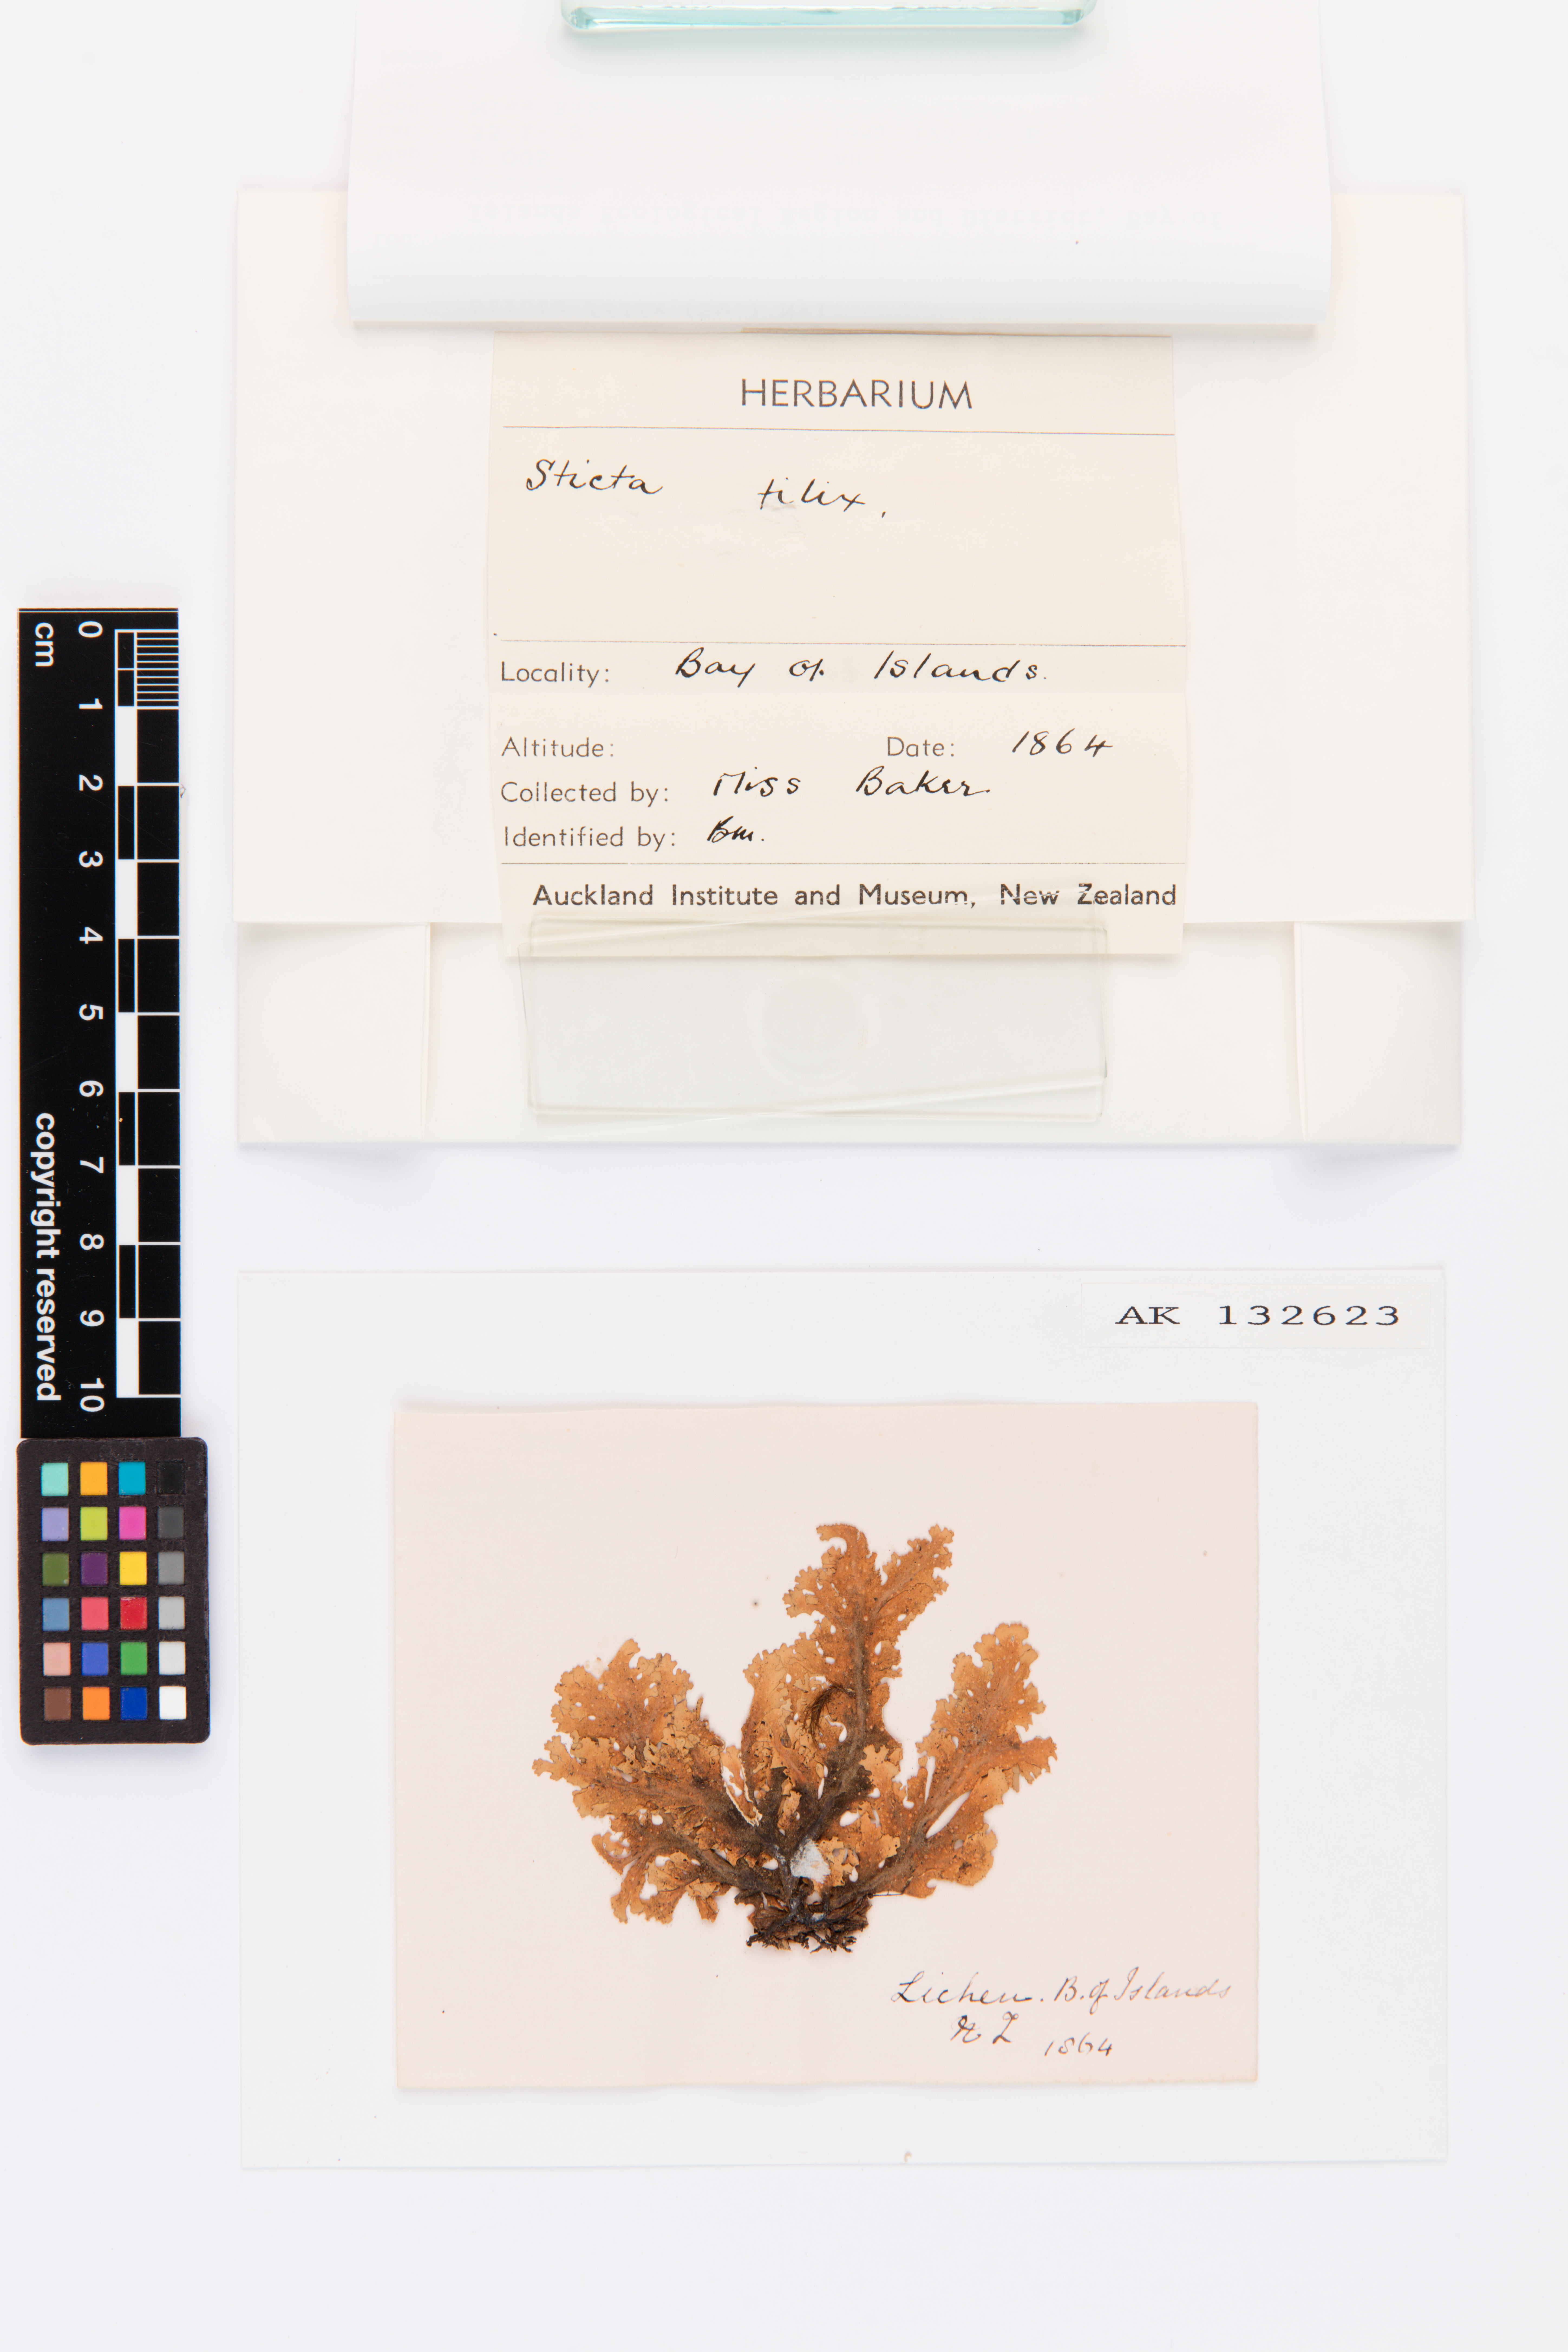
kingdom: Fungi
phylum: Ascomycota
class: Lecanoromycetes
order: Peltigerales
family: Lobariaceae
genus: Sticta
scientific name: Sticta filix
